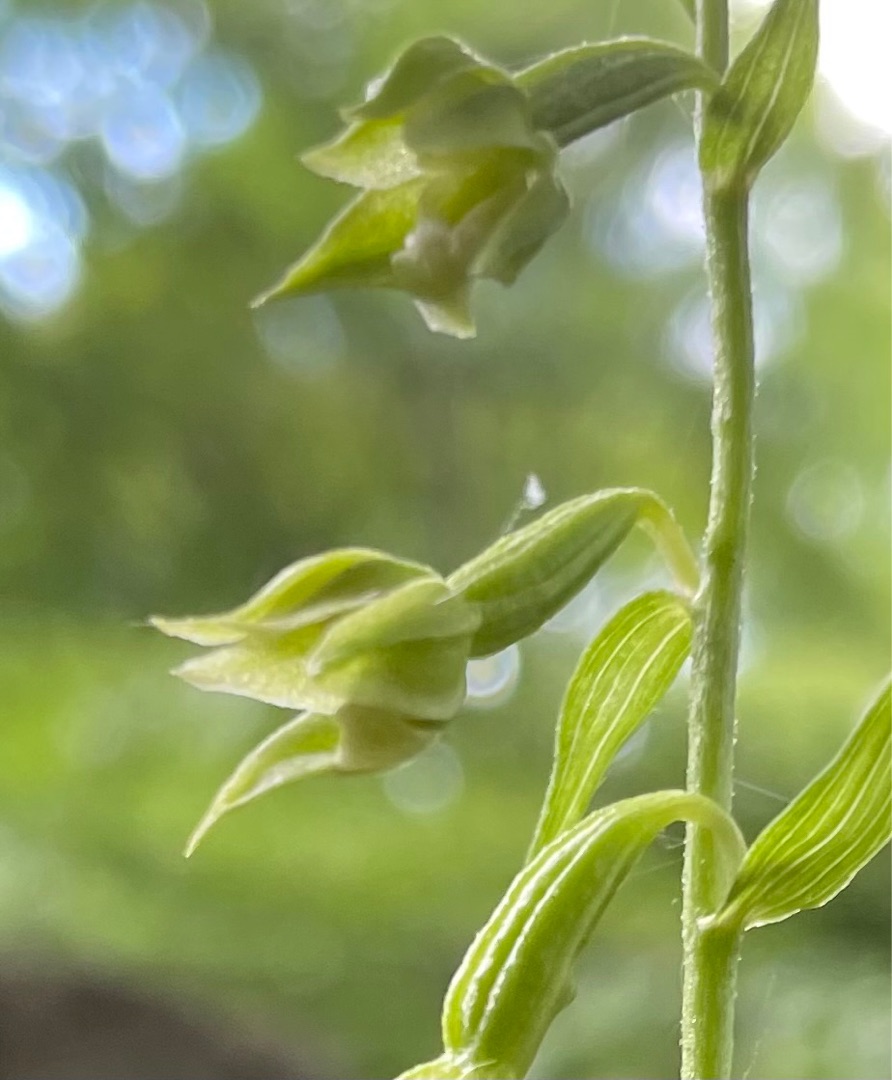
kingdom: Plantae
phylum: Tracheophyta
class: Liliopsida
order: Asparagales
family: Orchidaceae
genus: Epipactis
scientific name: Epipactis phyllanthes
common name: Nikkende hullæbe
